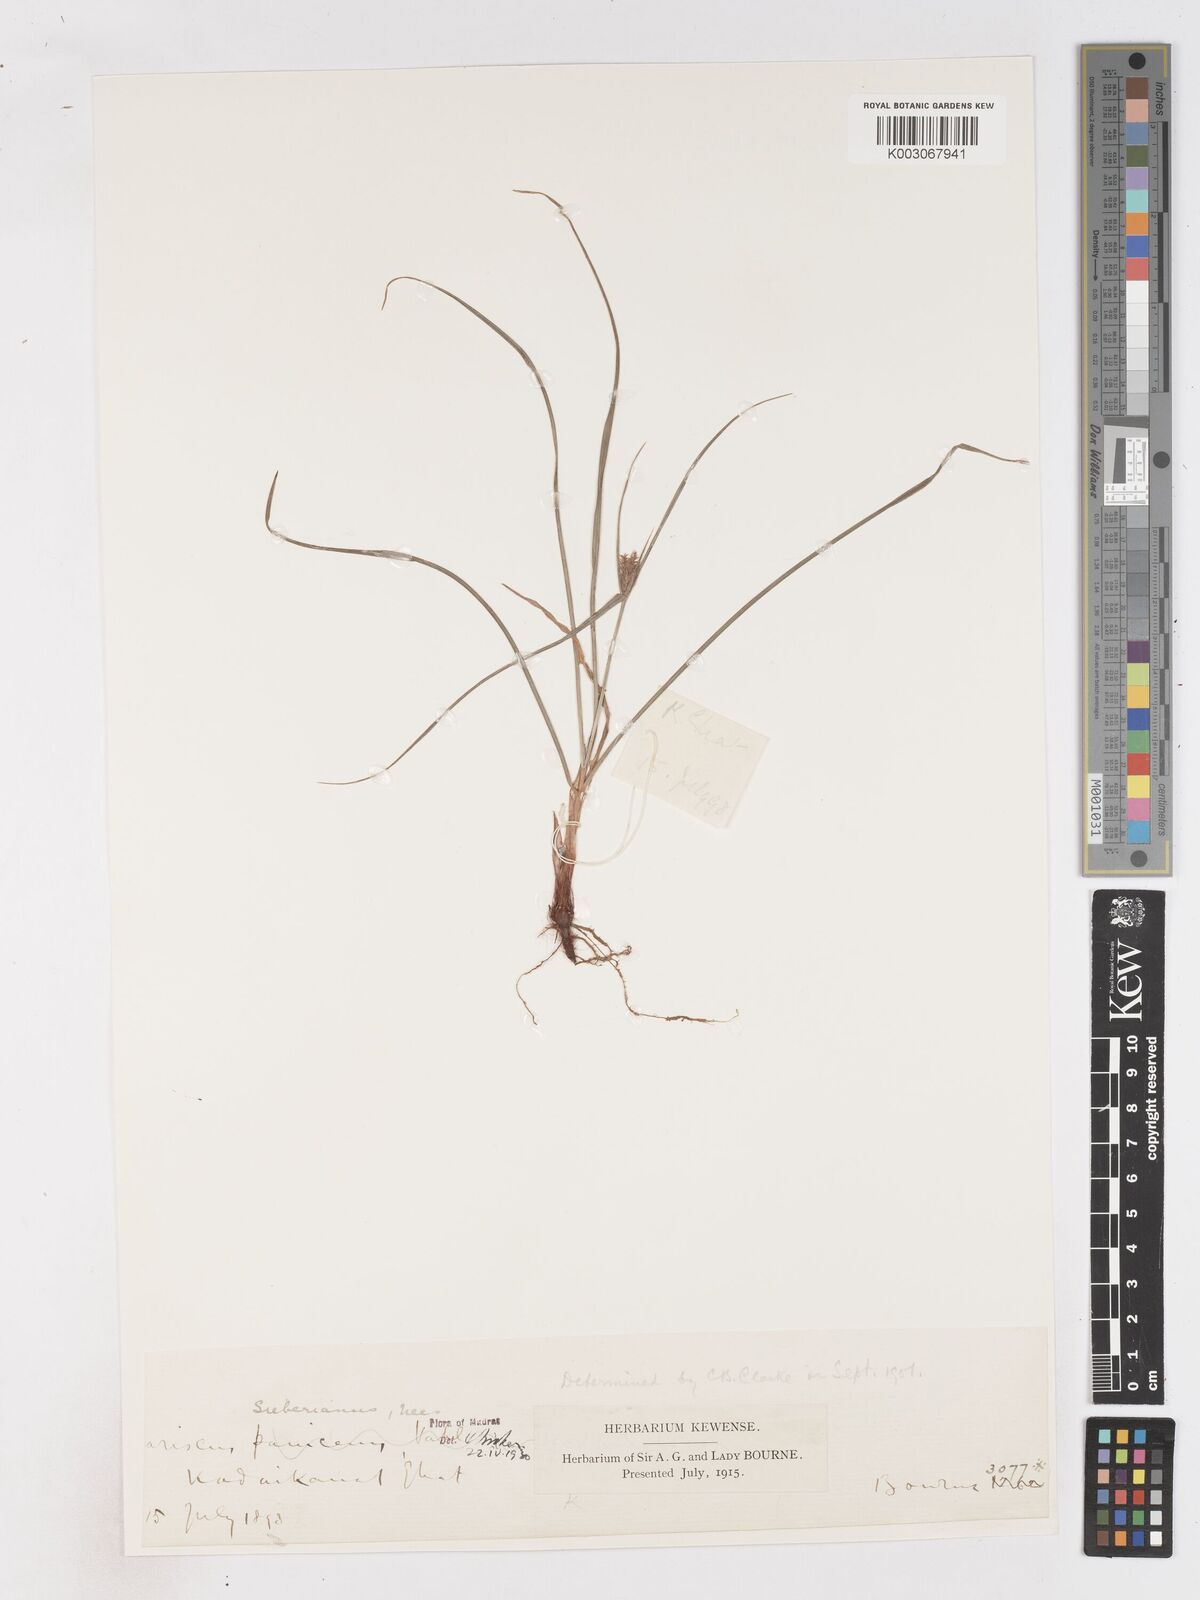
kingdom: Plantae
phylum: Tracheophyta
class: Liliopsida
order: Poales
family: Cyperaceae
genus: Cyperus
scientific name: Cyperus paniceus
